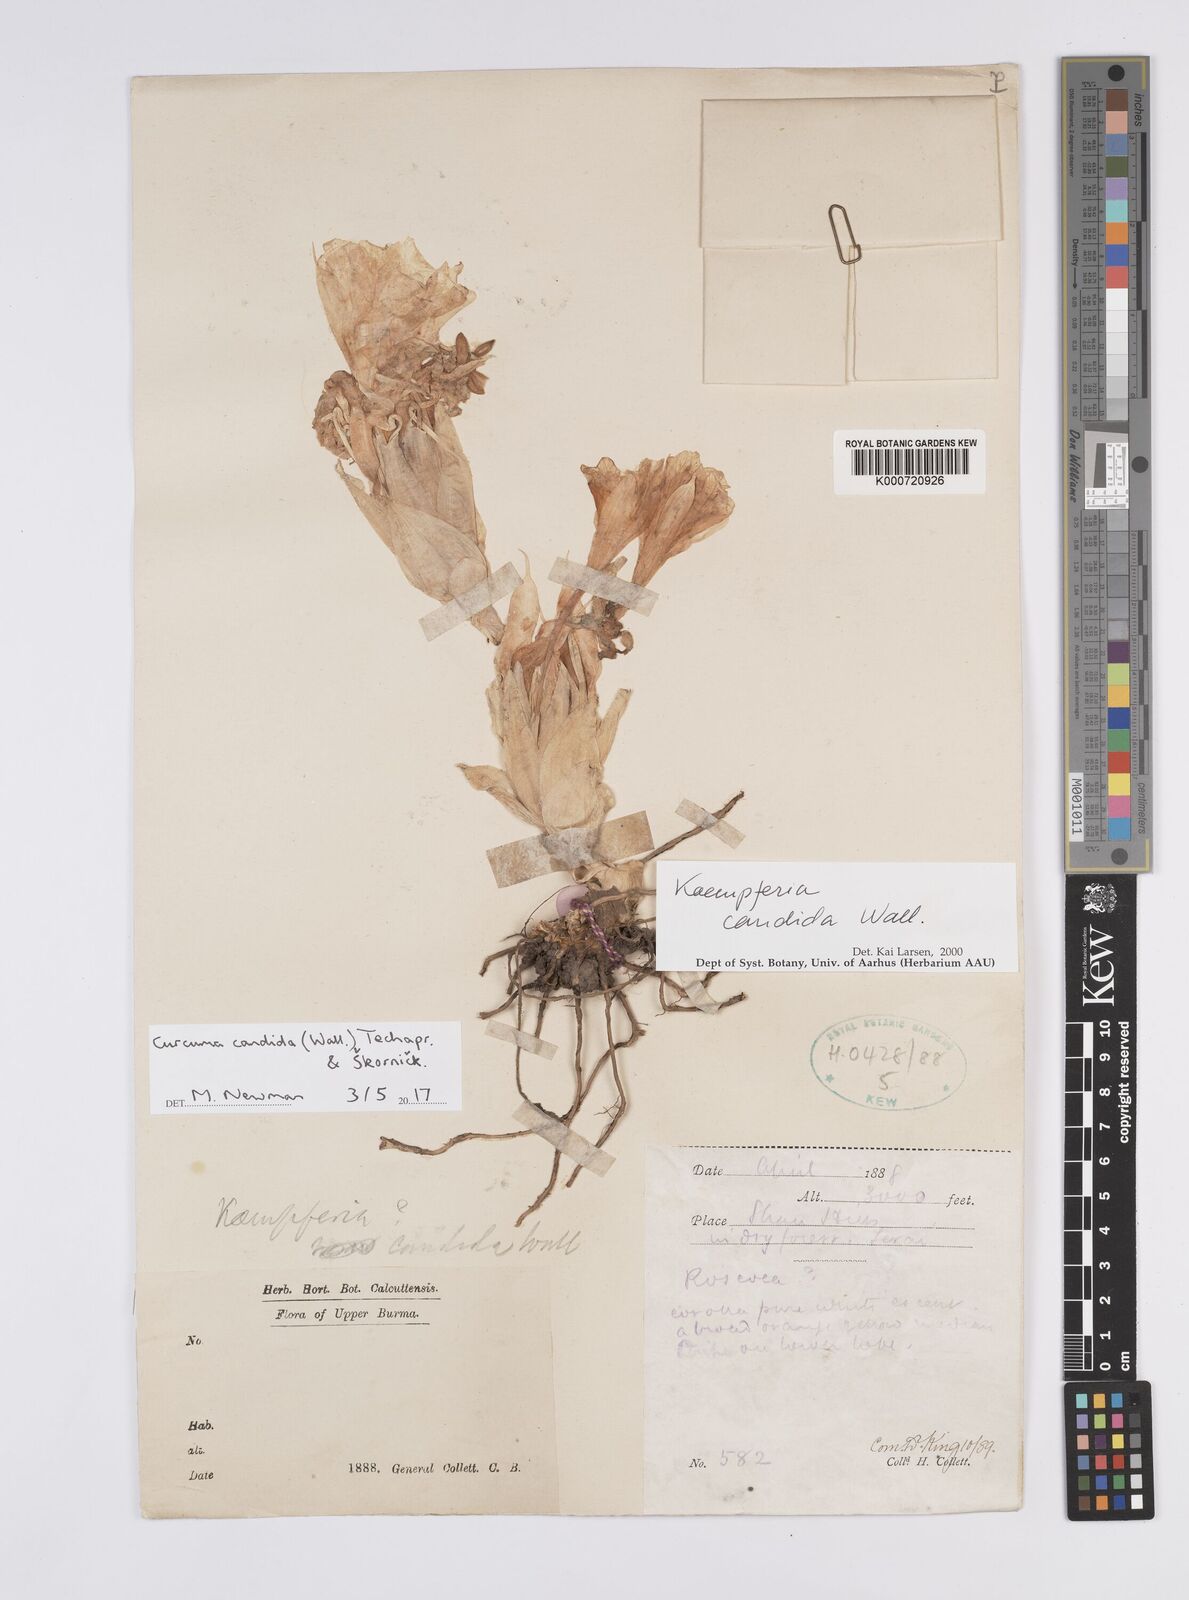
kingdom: Plantae
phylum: Tracheophyta
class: Liliopsida
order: Zingiberales
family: Zingiberaceae
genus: Curcuma
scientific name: Curcuma
